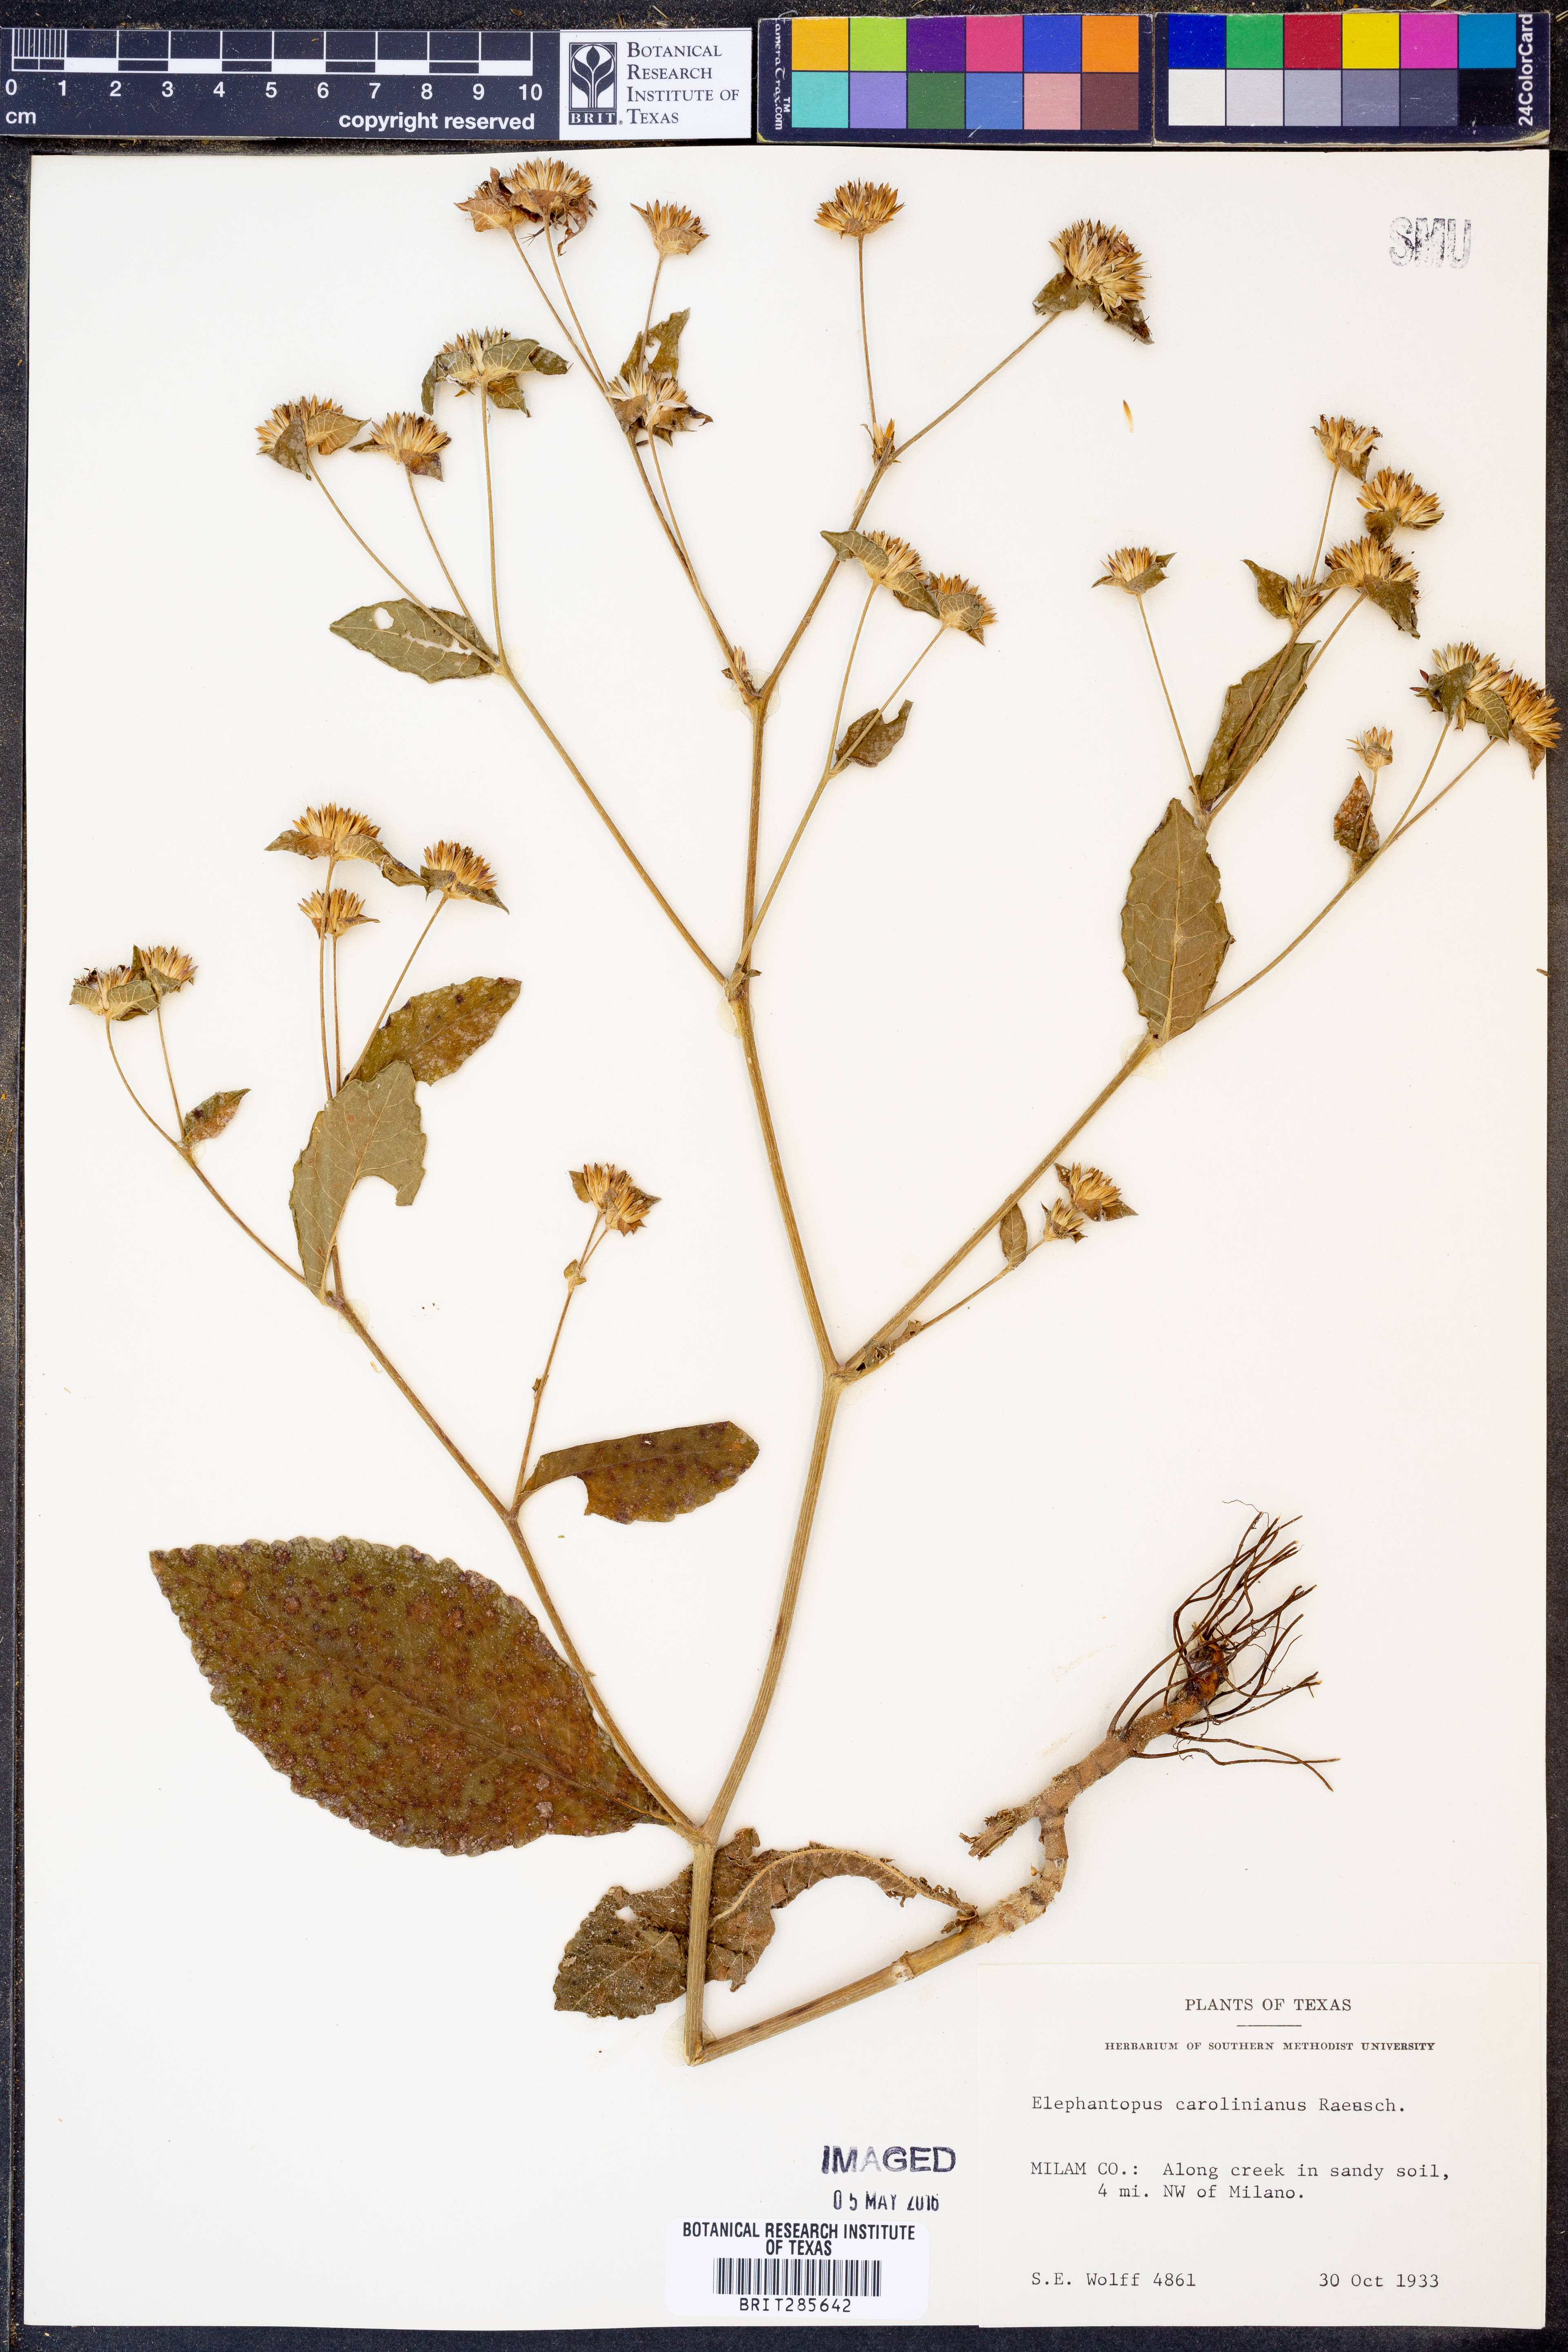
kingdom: Plantae
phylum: Tracheophyta
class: Magnoliopsida
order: Asterales
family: Asteraceae
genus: Elephantopus
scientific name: Elephantopus carolinianus
